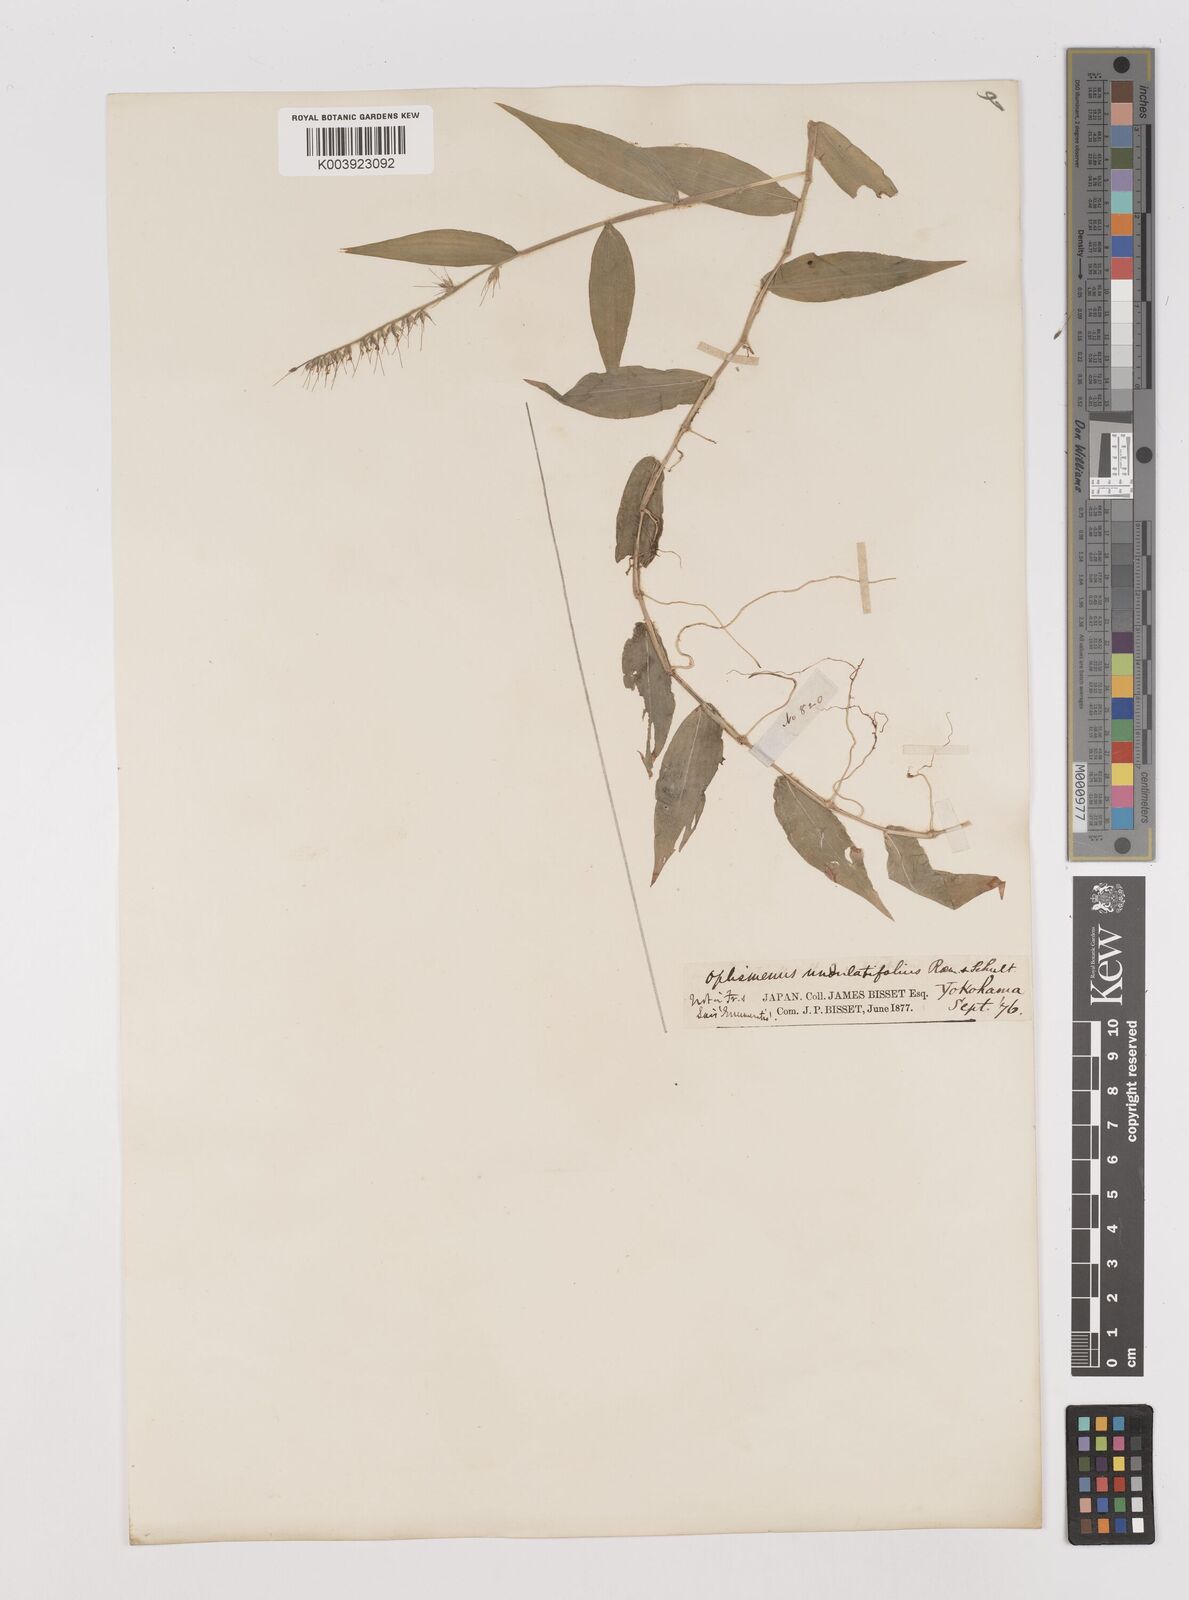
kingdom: Plantae
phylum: Tracheophyta
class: Liliopsida
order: Poales
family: Poaceae
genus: Oplismenus
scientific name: Oplismenus undulatifolius
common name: Wavyleaf basketgrass
